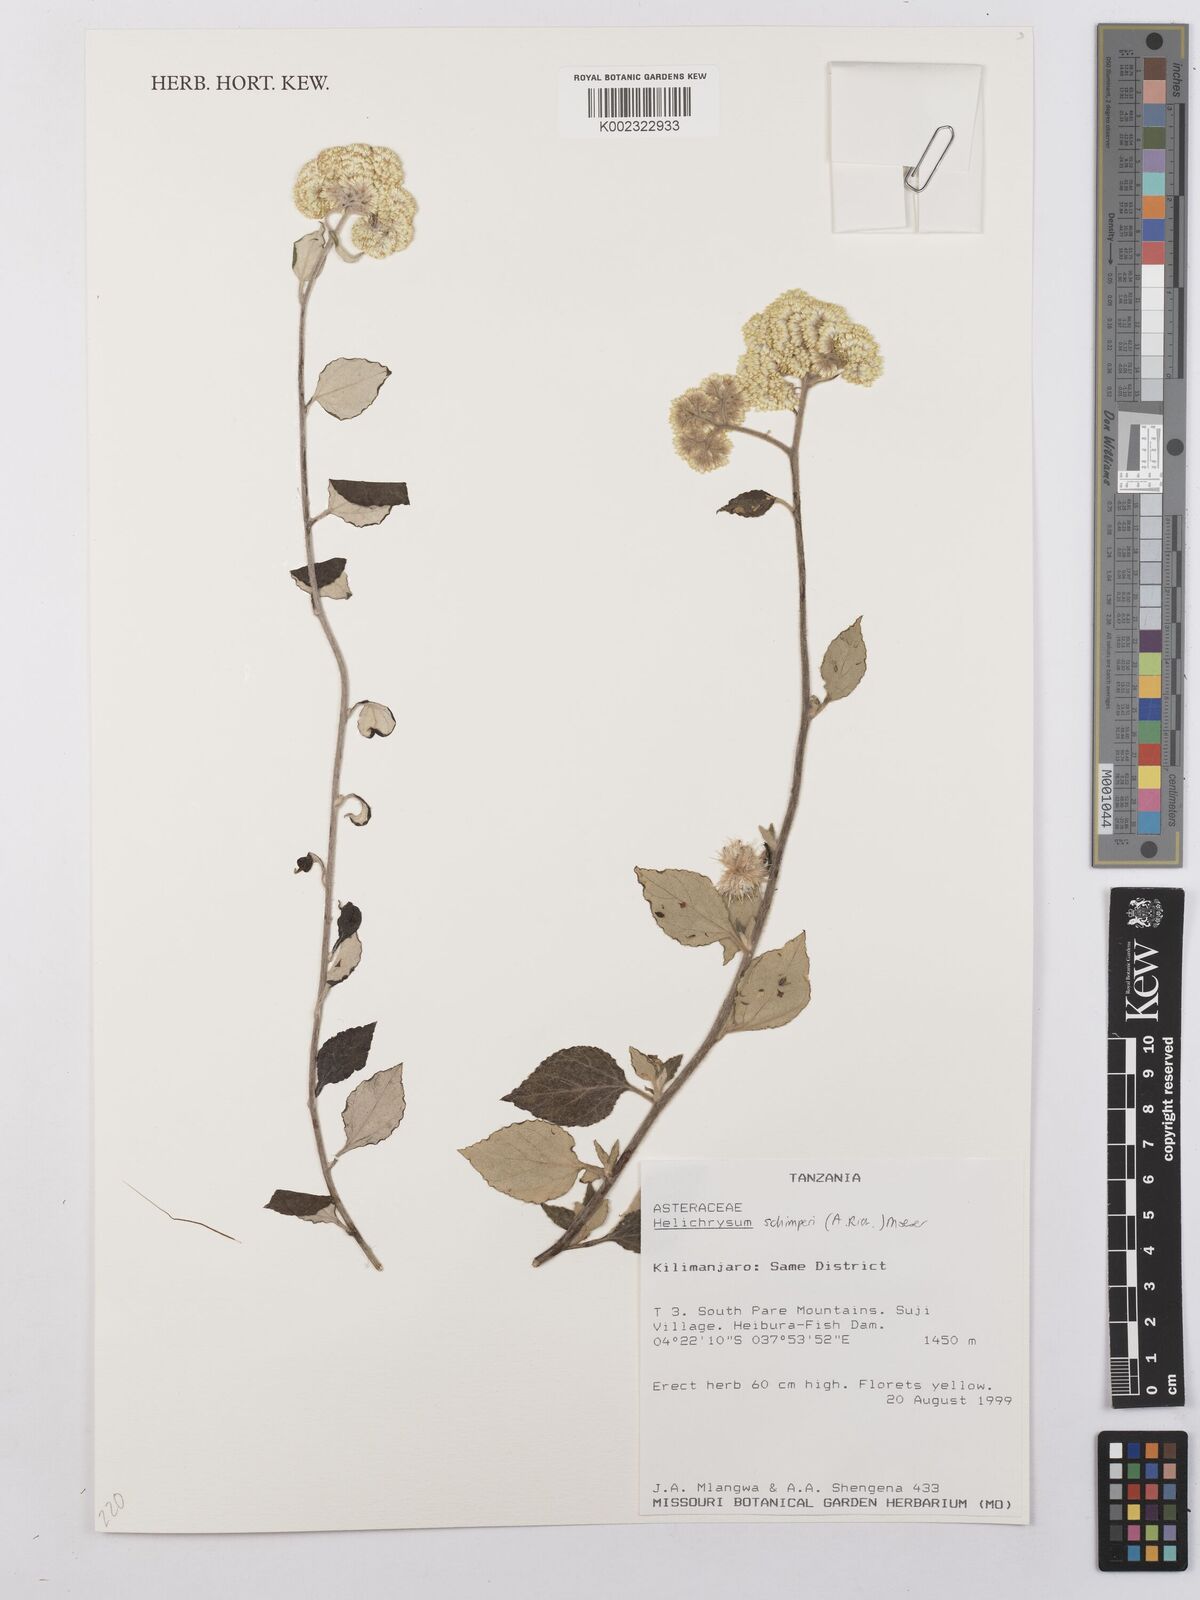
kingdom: Plantae
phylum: Tracheophyta
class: Magnoliopsida
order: Asterales
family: Asteraceae
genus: Helichrysum
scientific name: Helichrysum schimperi
